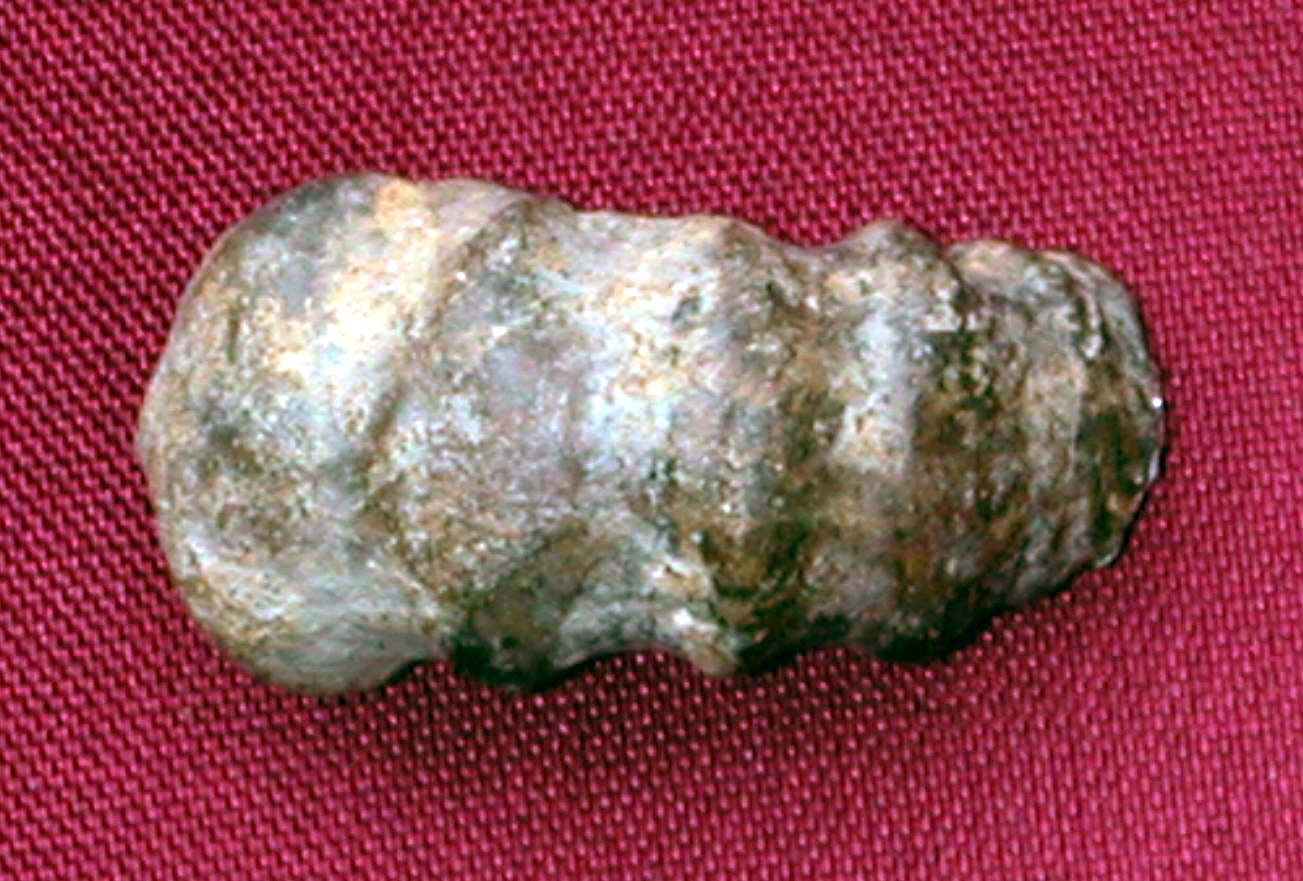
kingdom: Animalia
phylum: Mollusca
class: Cephalopoda
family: Liparoceratidae
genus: Androgynoceras
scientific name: Androgynoceras
